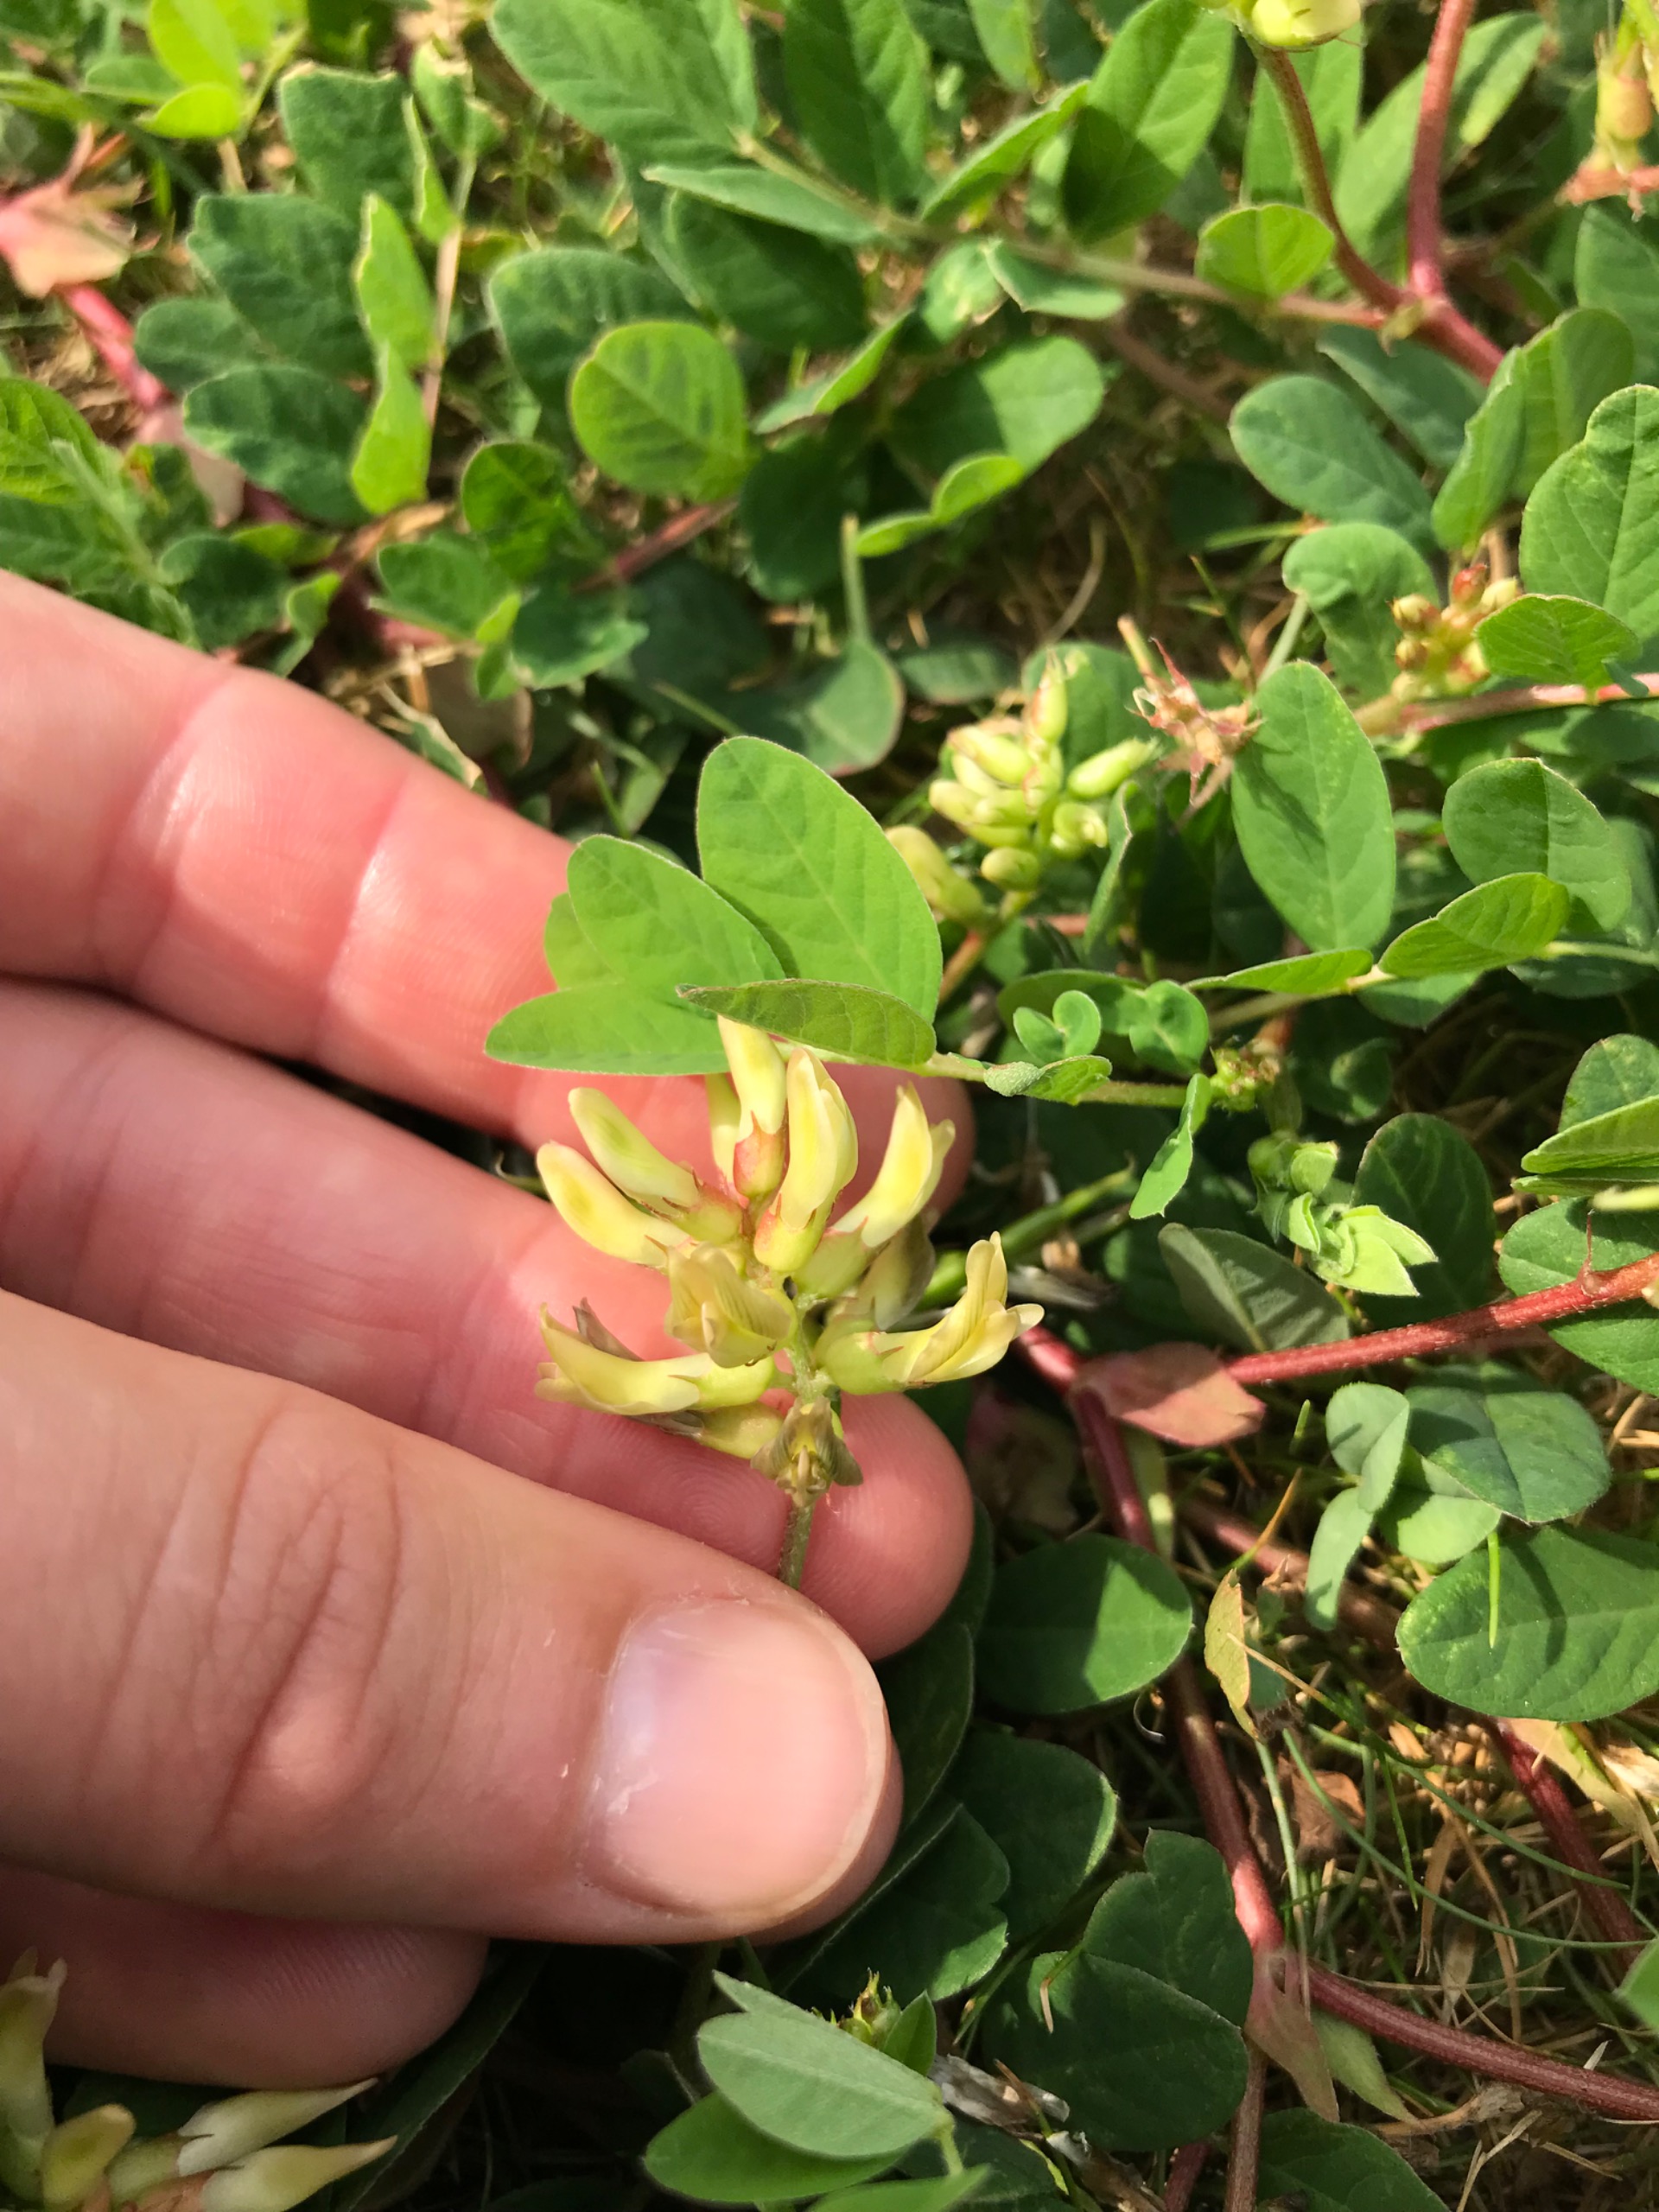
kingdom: Plantae
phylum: Tracheophyta
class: Magnoliopsida
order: Fabales
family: Fabaceae
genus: Astragalus
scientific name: Astragalus glycyphyllos
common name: Sød astragel
